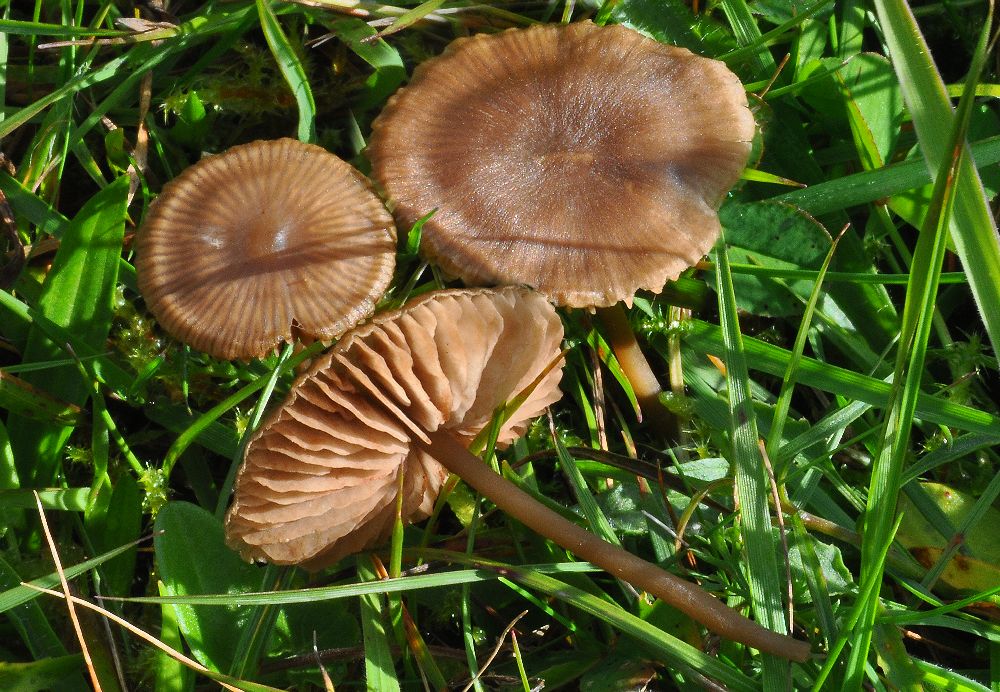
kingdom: Fungi
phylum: Basidiomycota
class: Agaricomycetes
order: Agaricales
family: Entolomataceae
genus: Entoloma
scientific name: Entoloma clandestinum
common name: tykbladet rødblad
